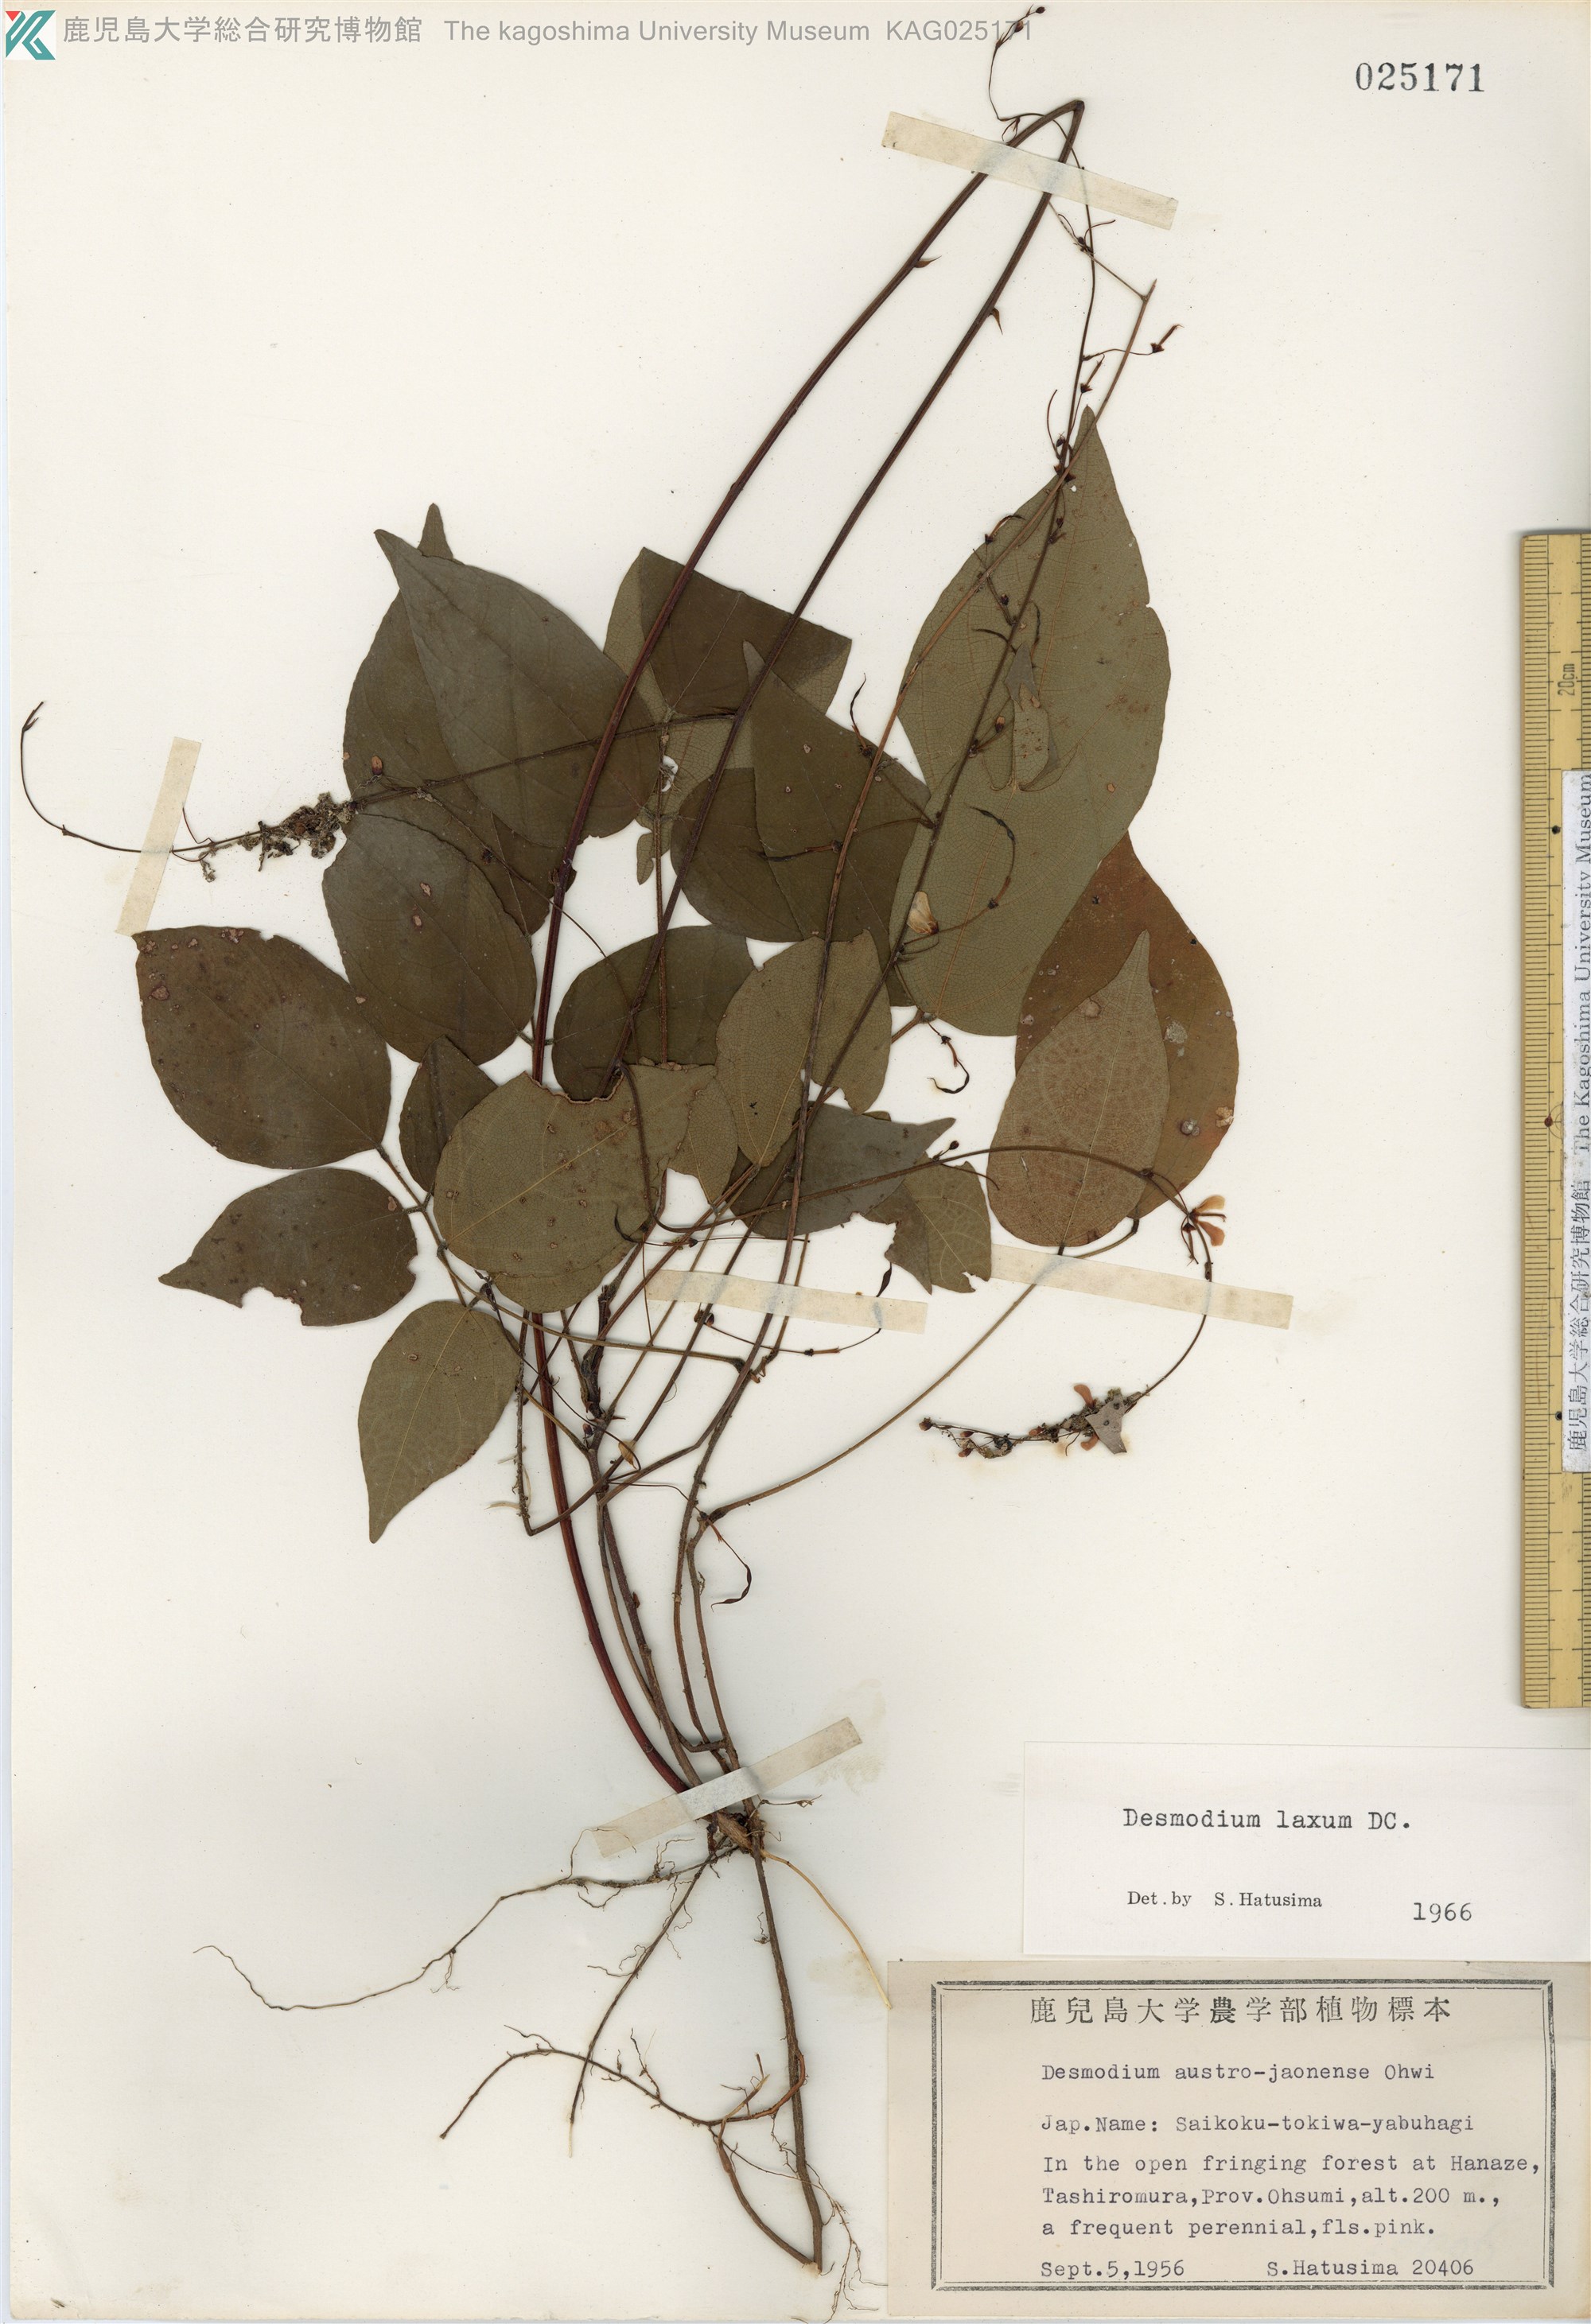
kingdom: Plantae
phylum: Tracheophyta
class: Magnoliopsida
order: Fabales
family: Fabaceae
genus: Desmodium
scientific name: Desmodium laxum
